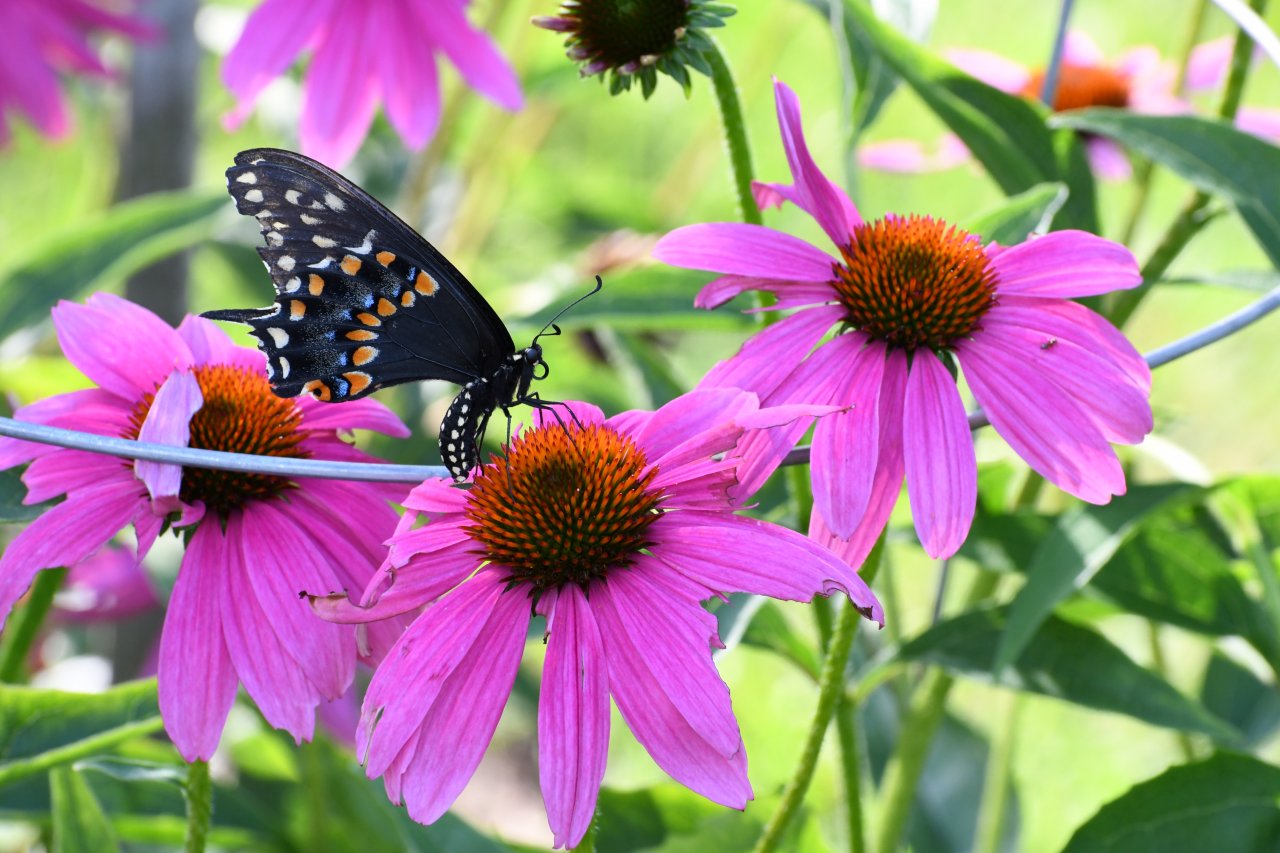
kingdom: Animalia
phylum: Arthropoda
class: Insecta
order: Lepidoptera
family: Papilionidae
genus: Papilio
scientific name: Papilio polyxenes
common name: Black Swallowtail
